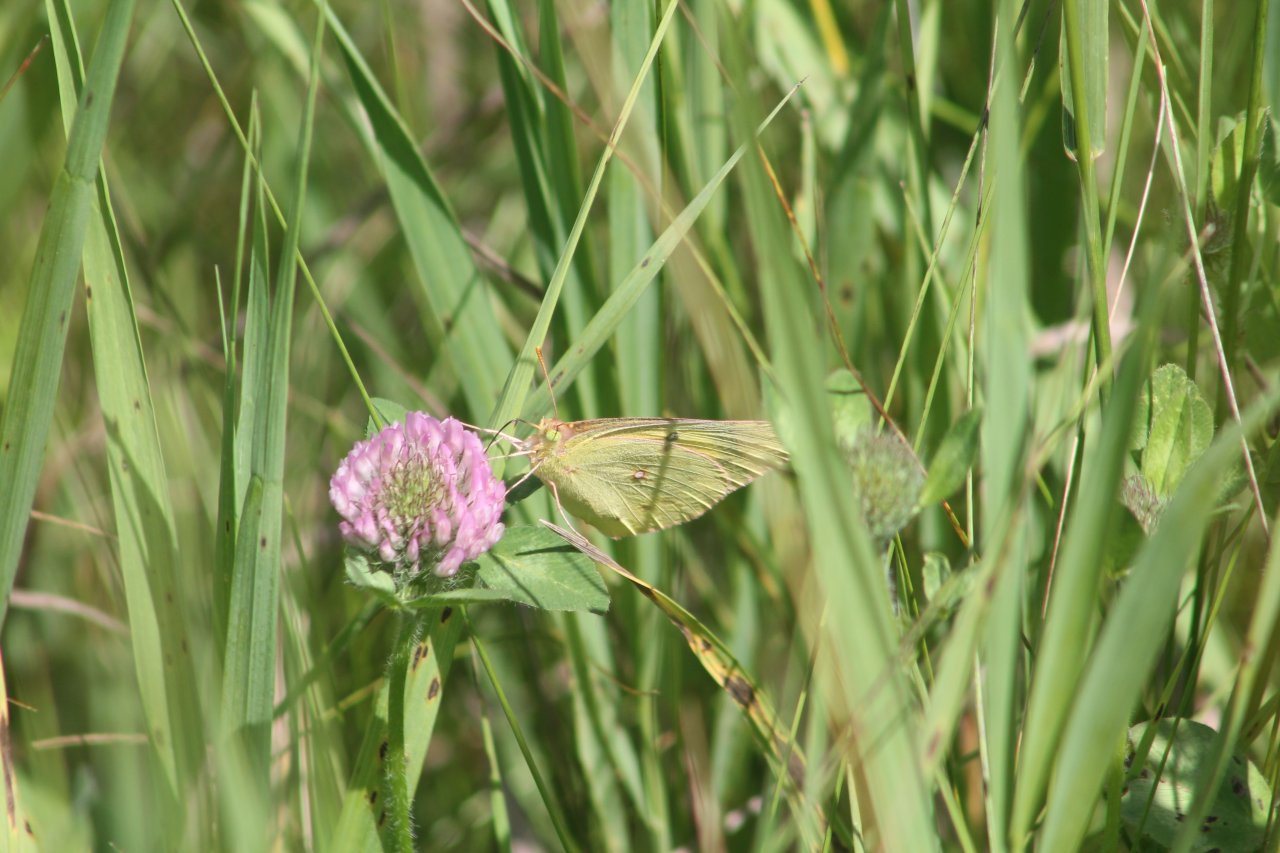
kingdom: Animalia
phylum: Arthropoda
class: Insecta
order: Lepidoptera
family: Pieridae
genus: Colias
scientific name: Colias eurytheme
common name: Orange Sulphur
